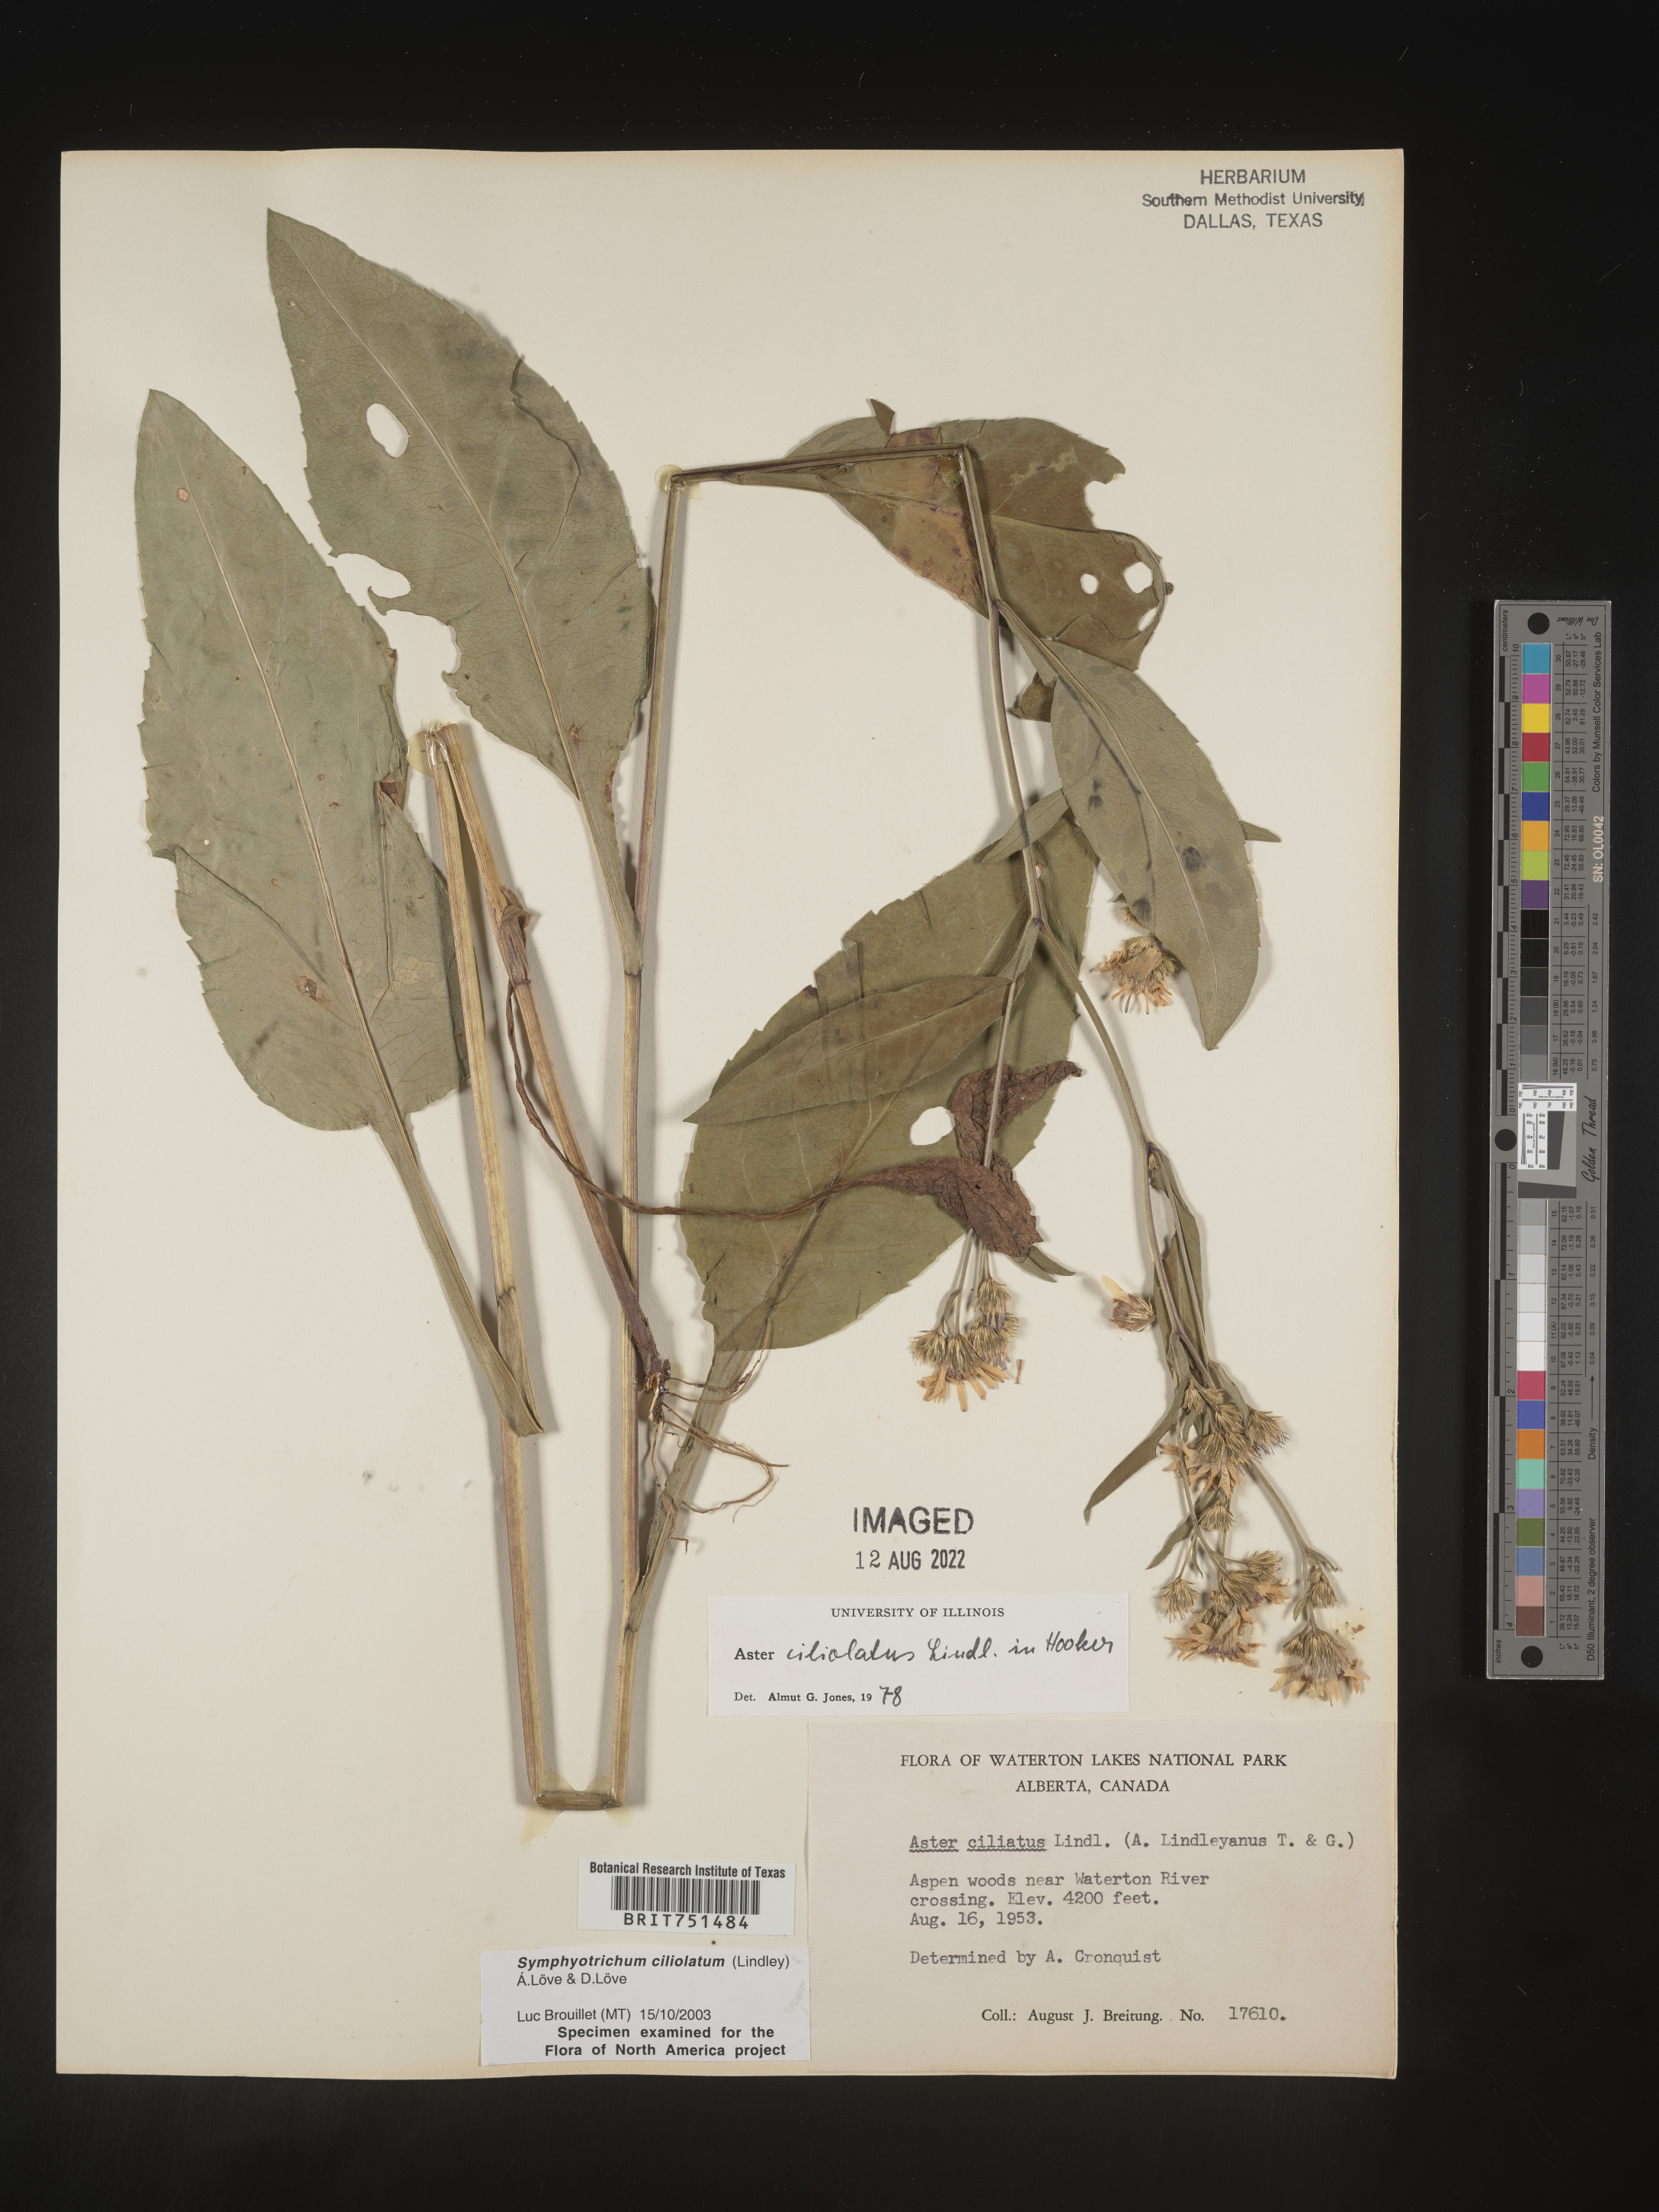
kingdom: Plantae
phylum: Tracheophyta
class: Magnoliopsida
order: Asterales
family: Asteraceae
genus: Symphyotrichum
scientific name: Symphyotrichum ciliolatum
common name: Fringed blue aster
